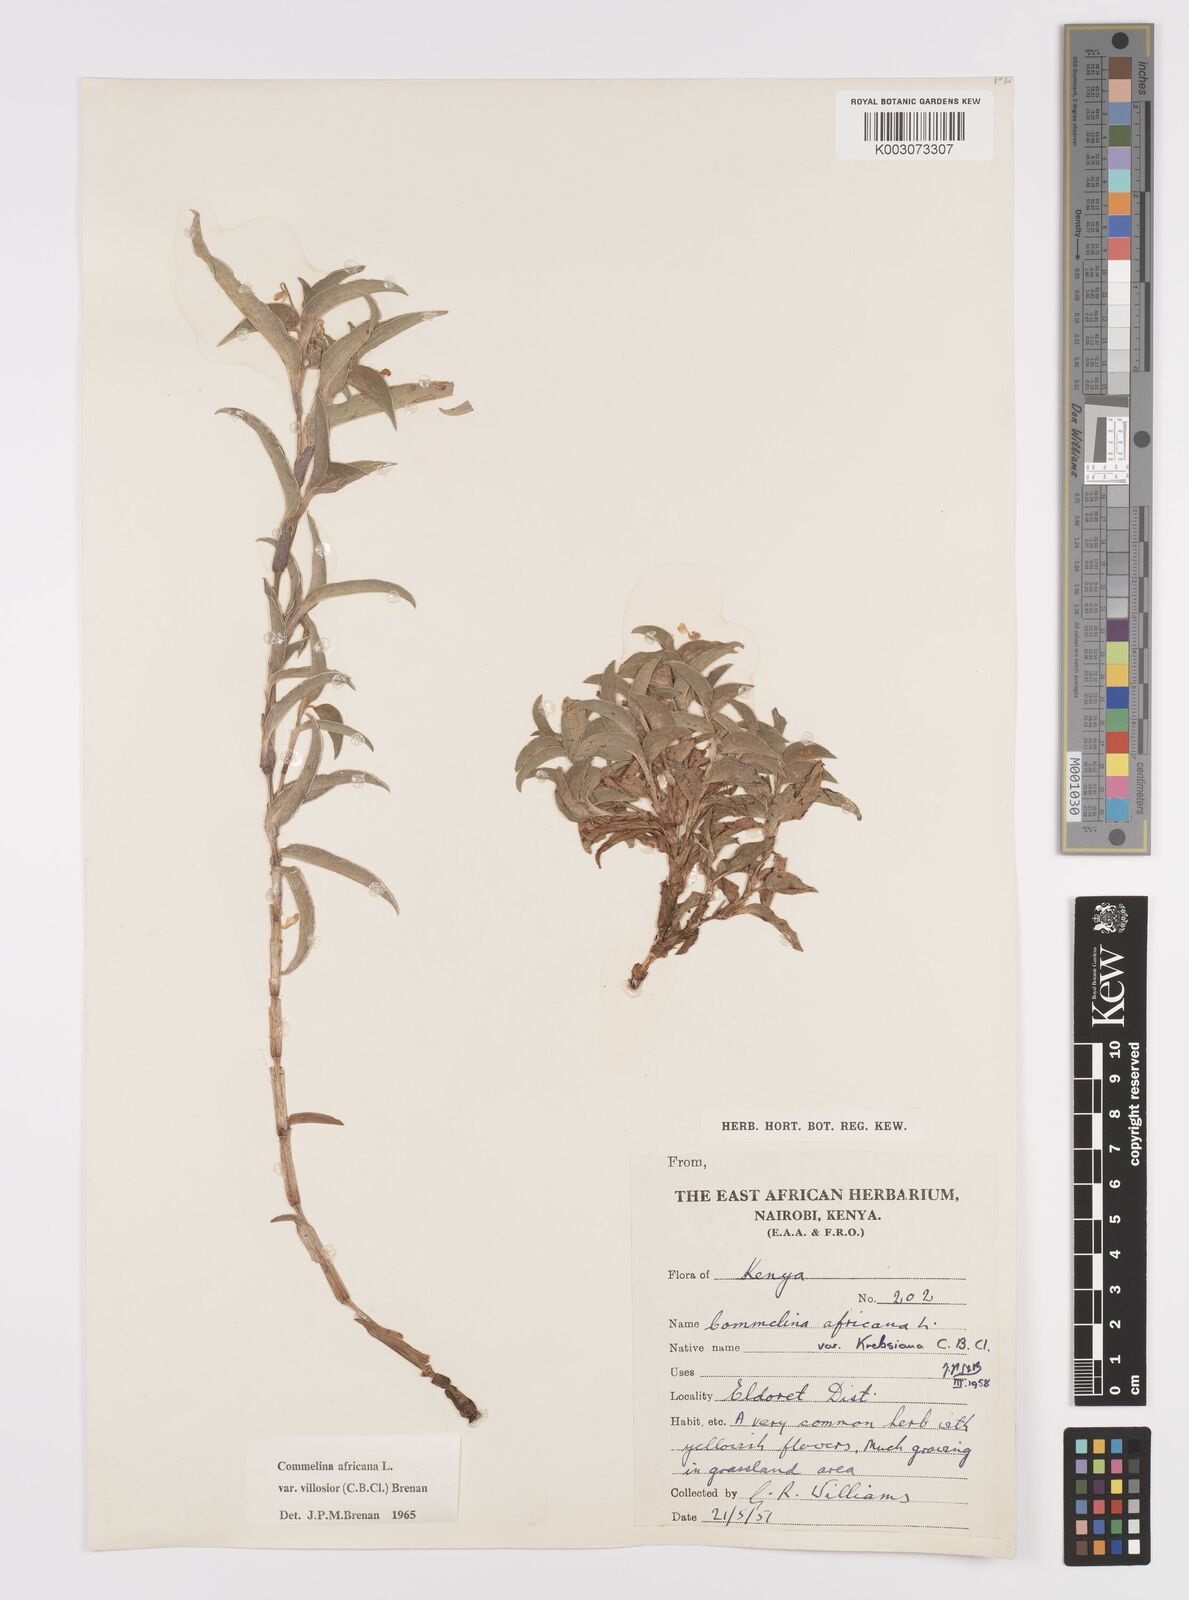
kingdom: Plantae
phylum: Tracheophyta
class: Liliopsida
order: Commelinales
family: Commelinaceae
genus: Commelina
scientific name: Commelina africana
